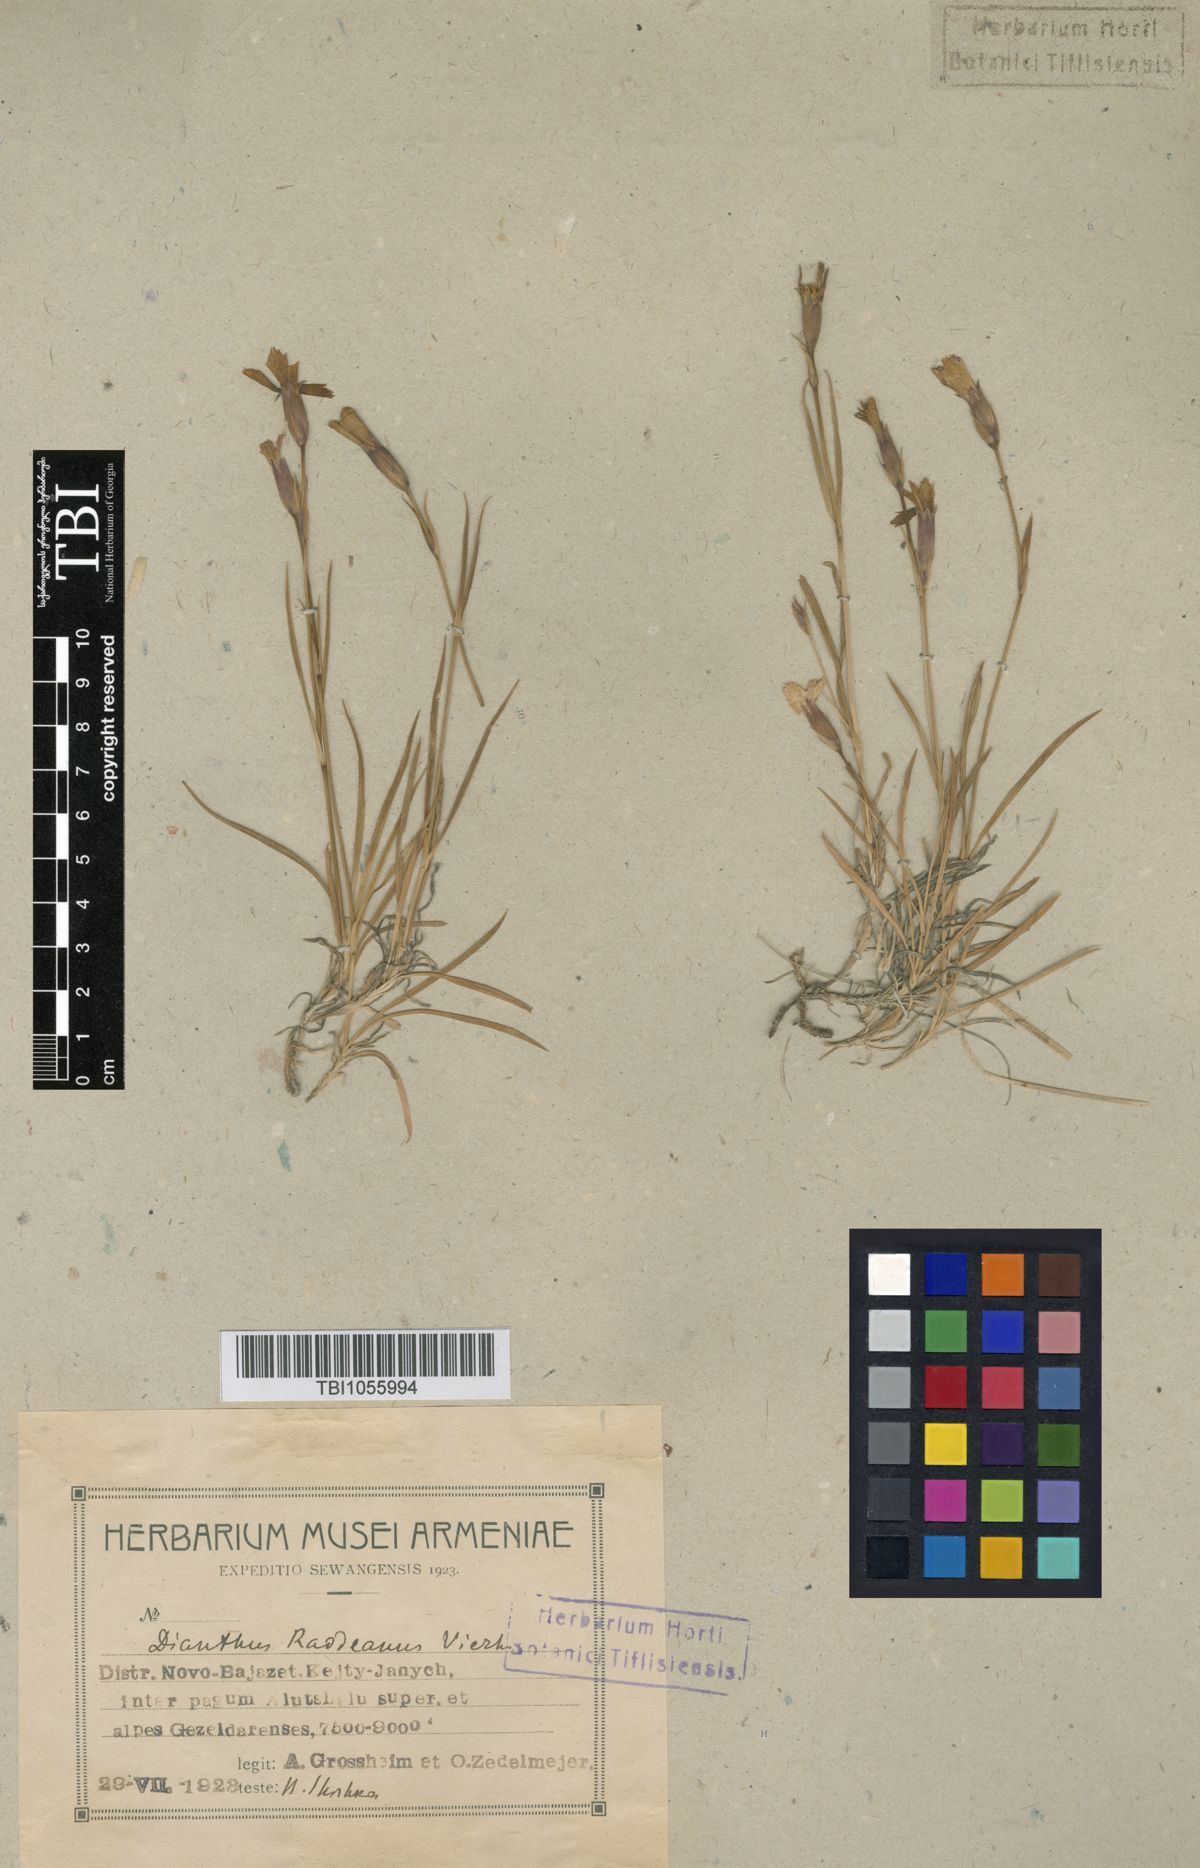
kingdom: Plantae
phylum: Tracheophyta
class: Magnoliopsida
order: Caryophyllales
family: Caryophyllaceae
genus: Dianthus
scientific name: Dianthus raddeanus
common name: Radde's pink
